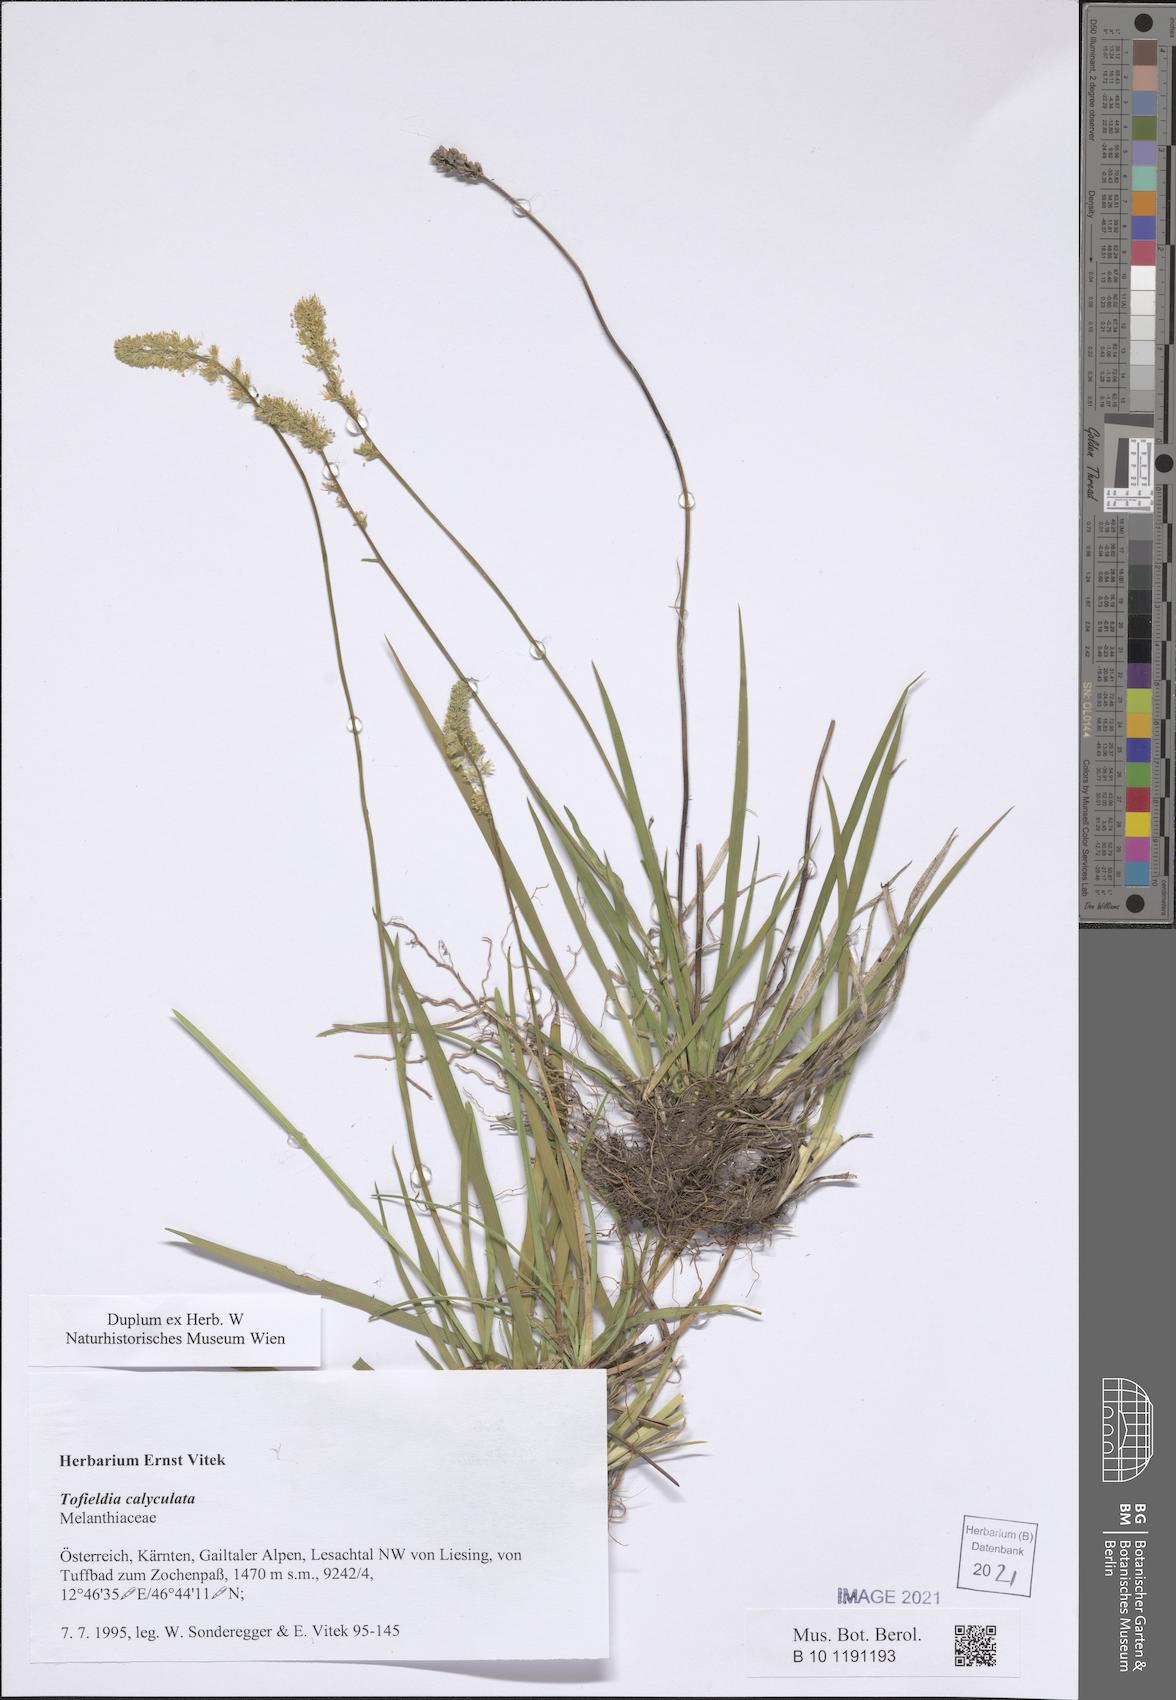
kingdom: Plantae
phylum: Tracheophyta
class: Liliopsida
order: Alismatales
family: Tofieldiaceae
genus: Tofieldia
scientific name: Tofieldia calyculata
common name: German-asphodel
